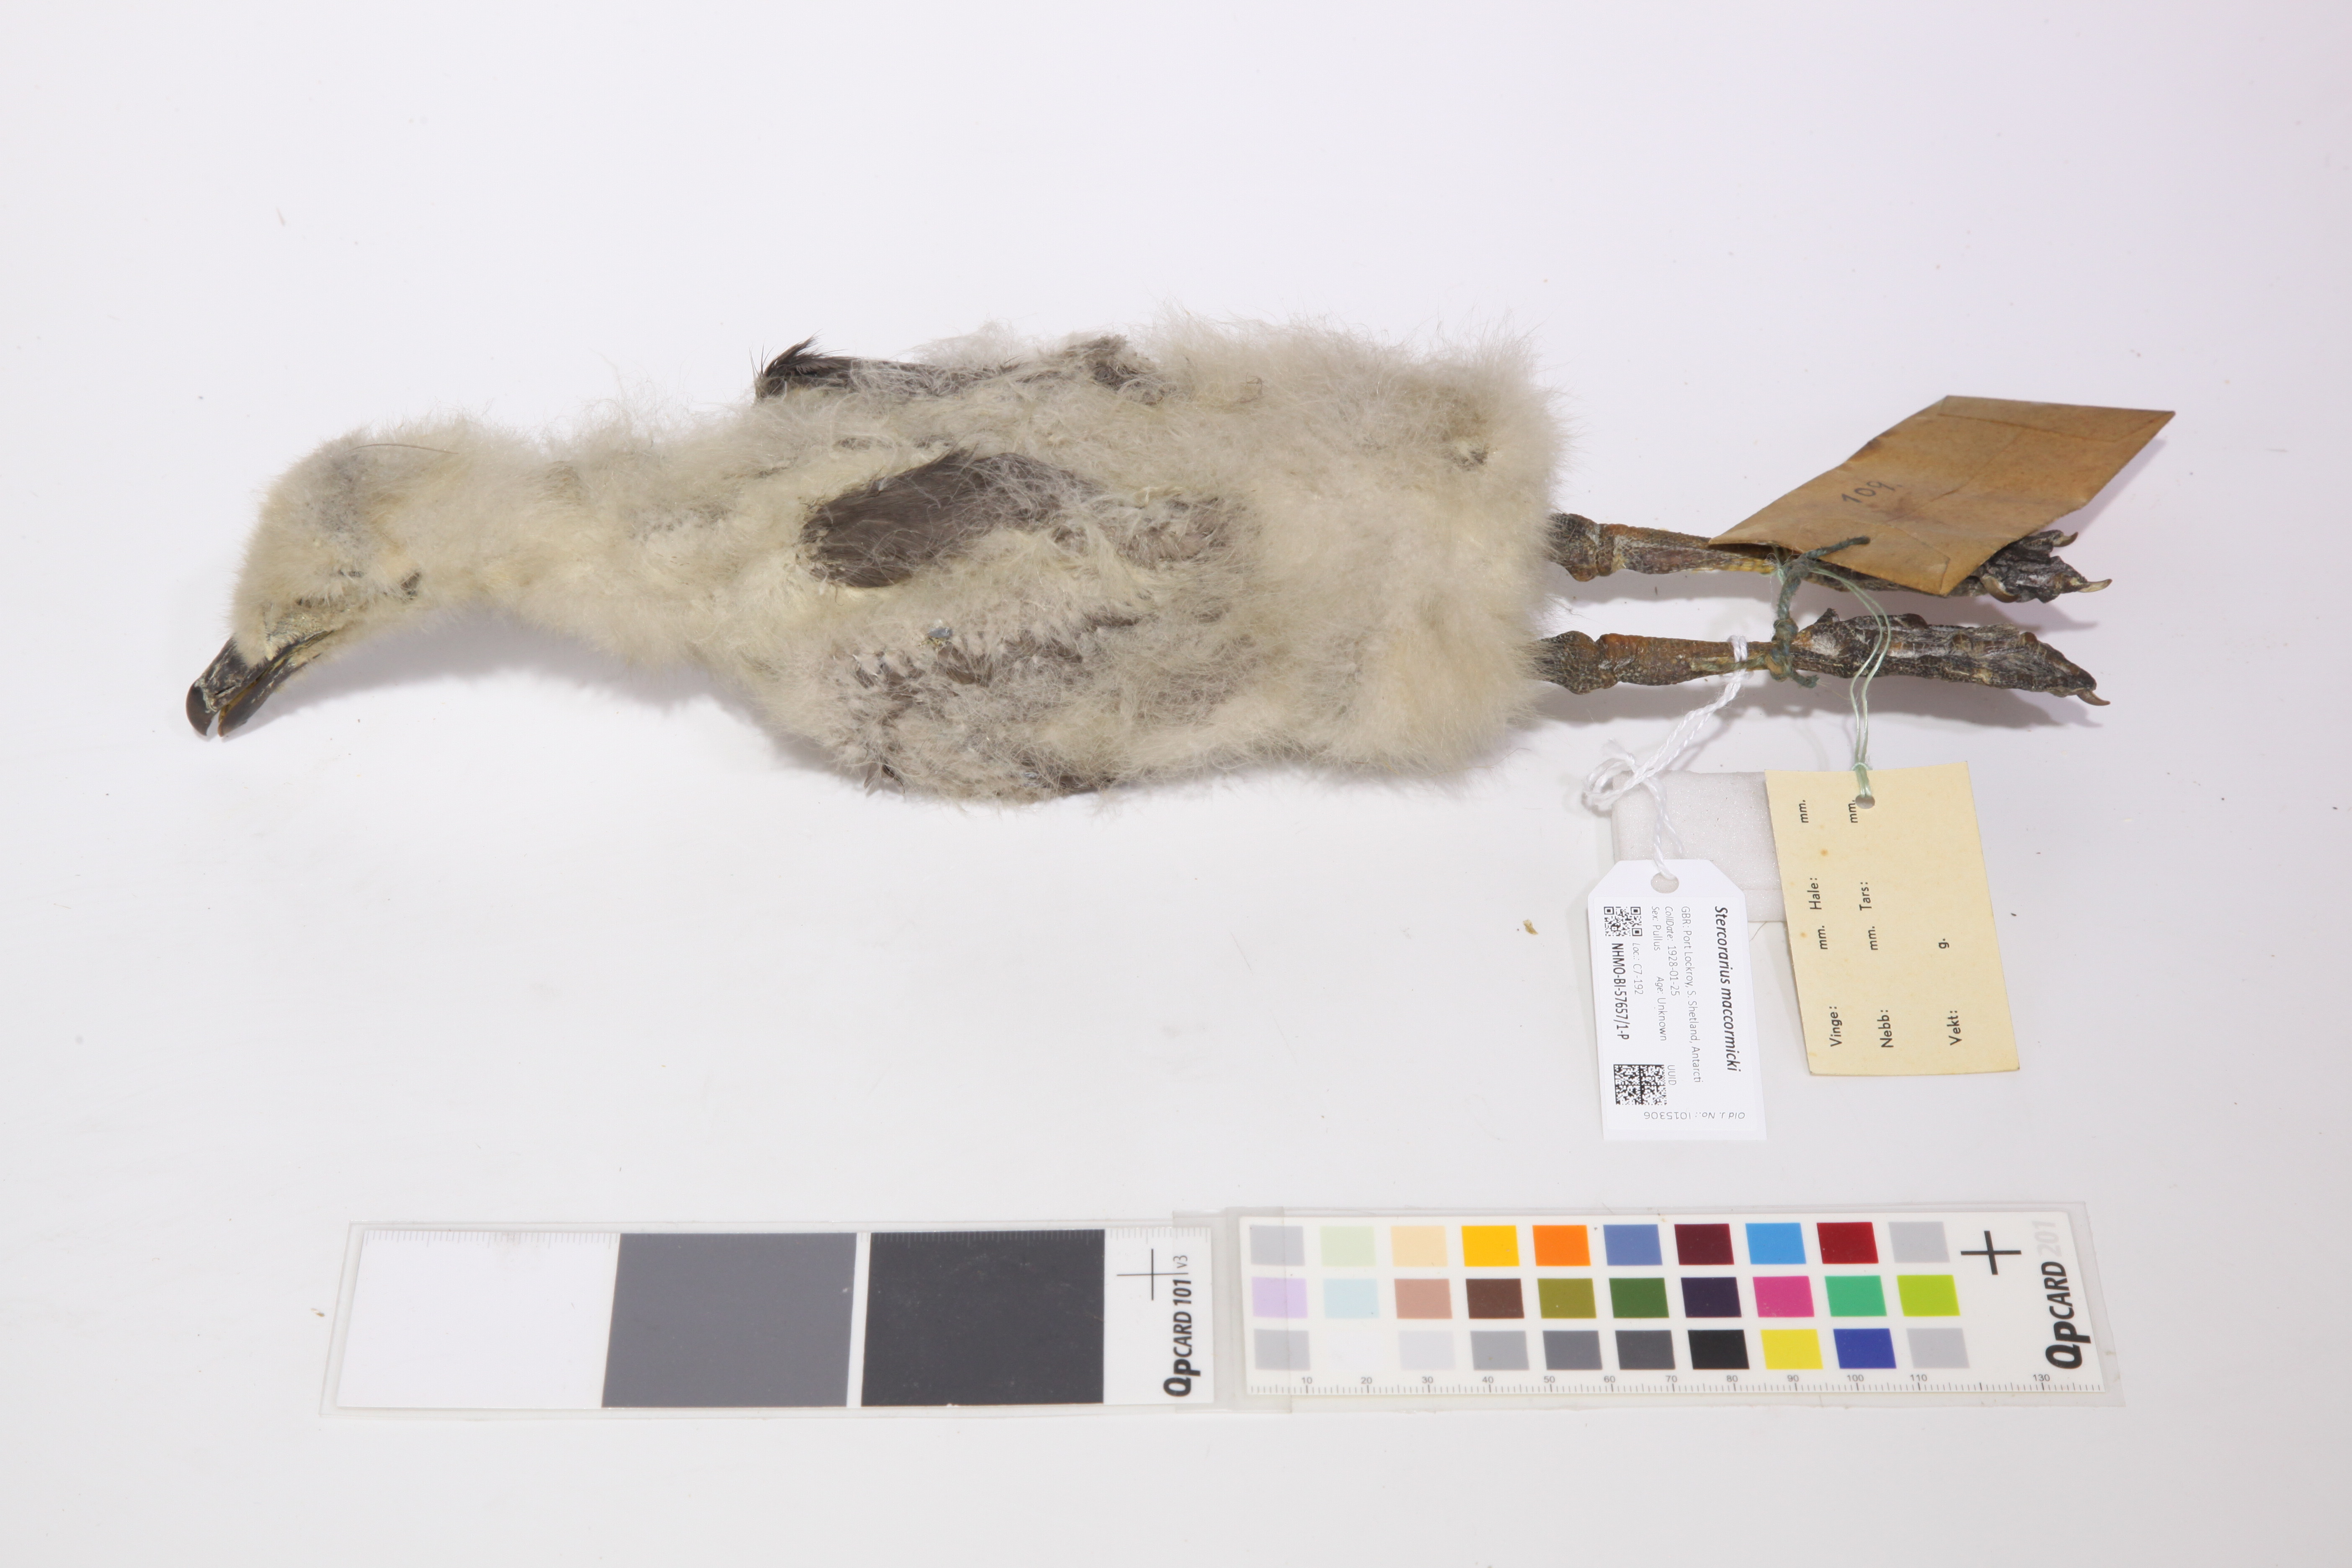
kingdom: Animalia
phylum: Chordata
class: Aves
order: Charadriiformes
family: Stercorariidae
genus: Stercorarius
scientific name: Stercorarius maccormicki
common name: South polar skua
